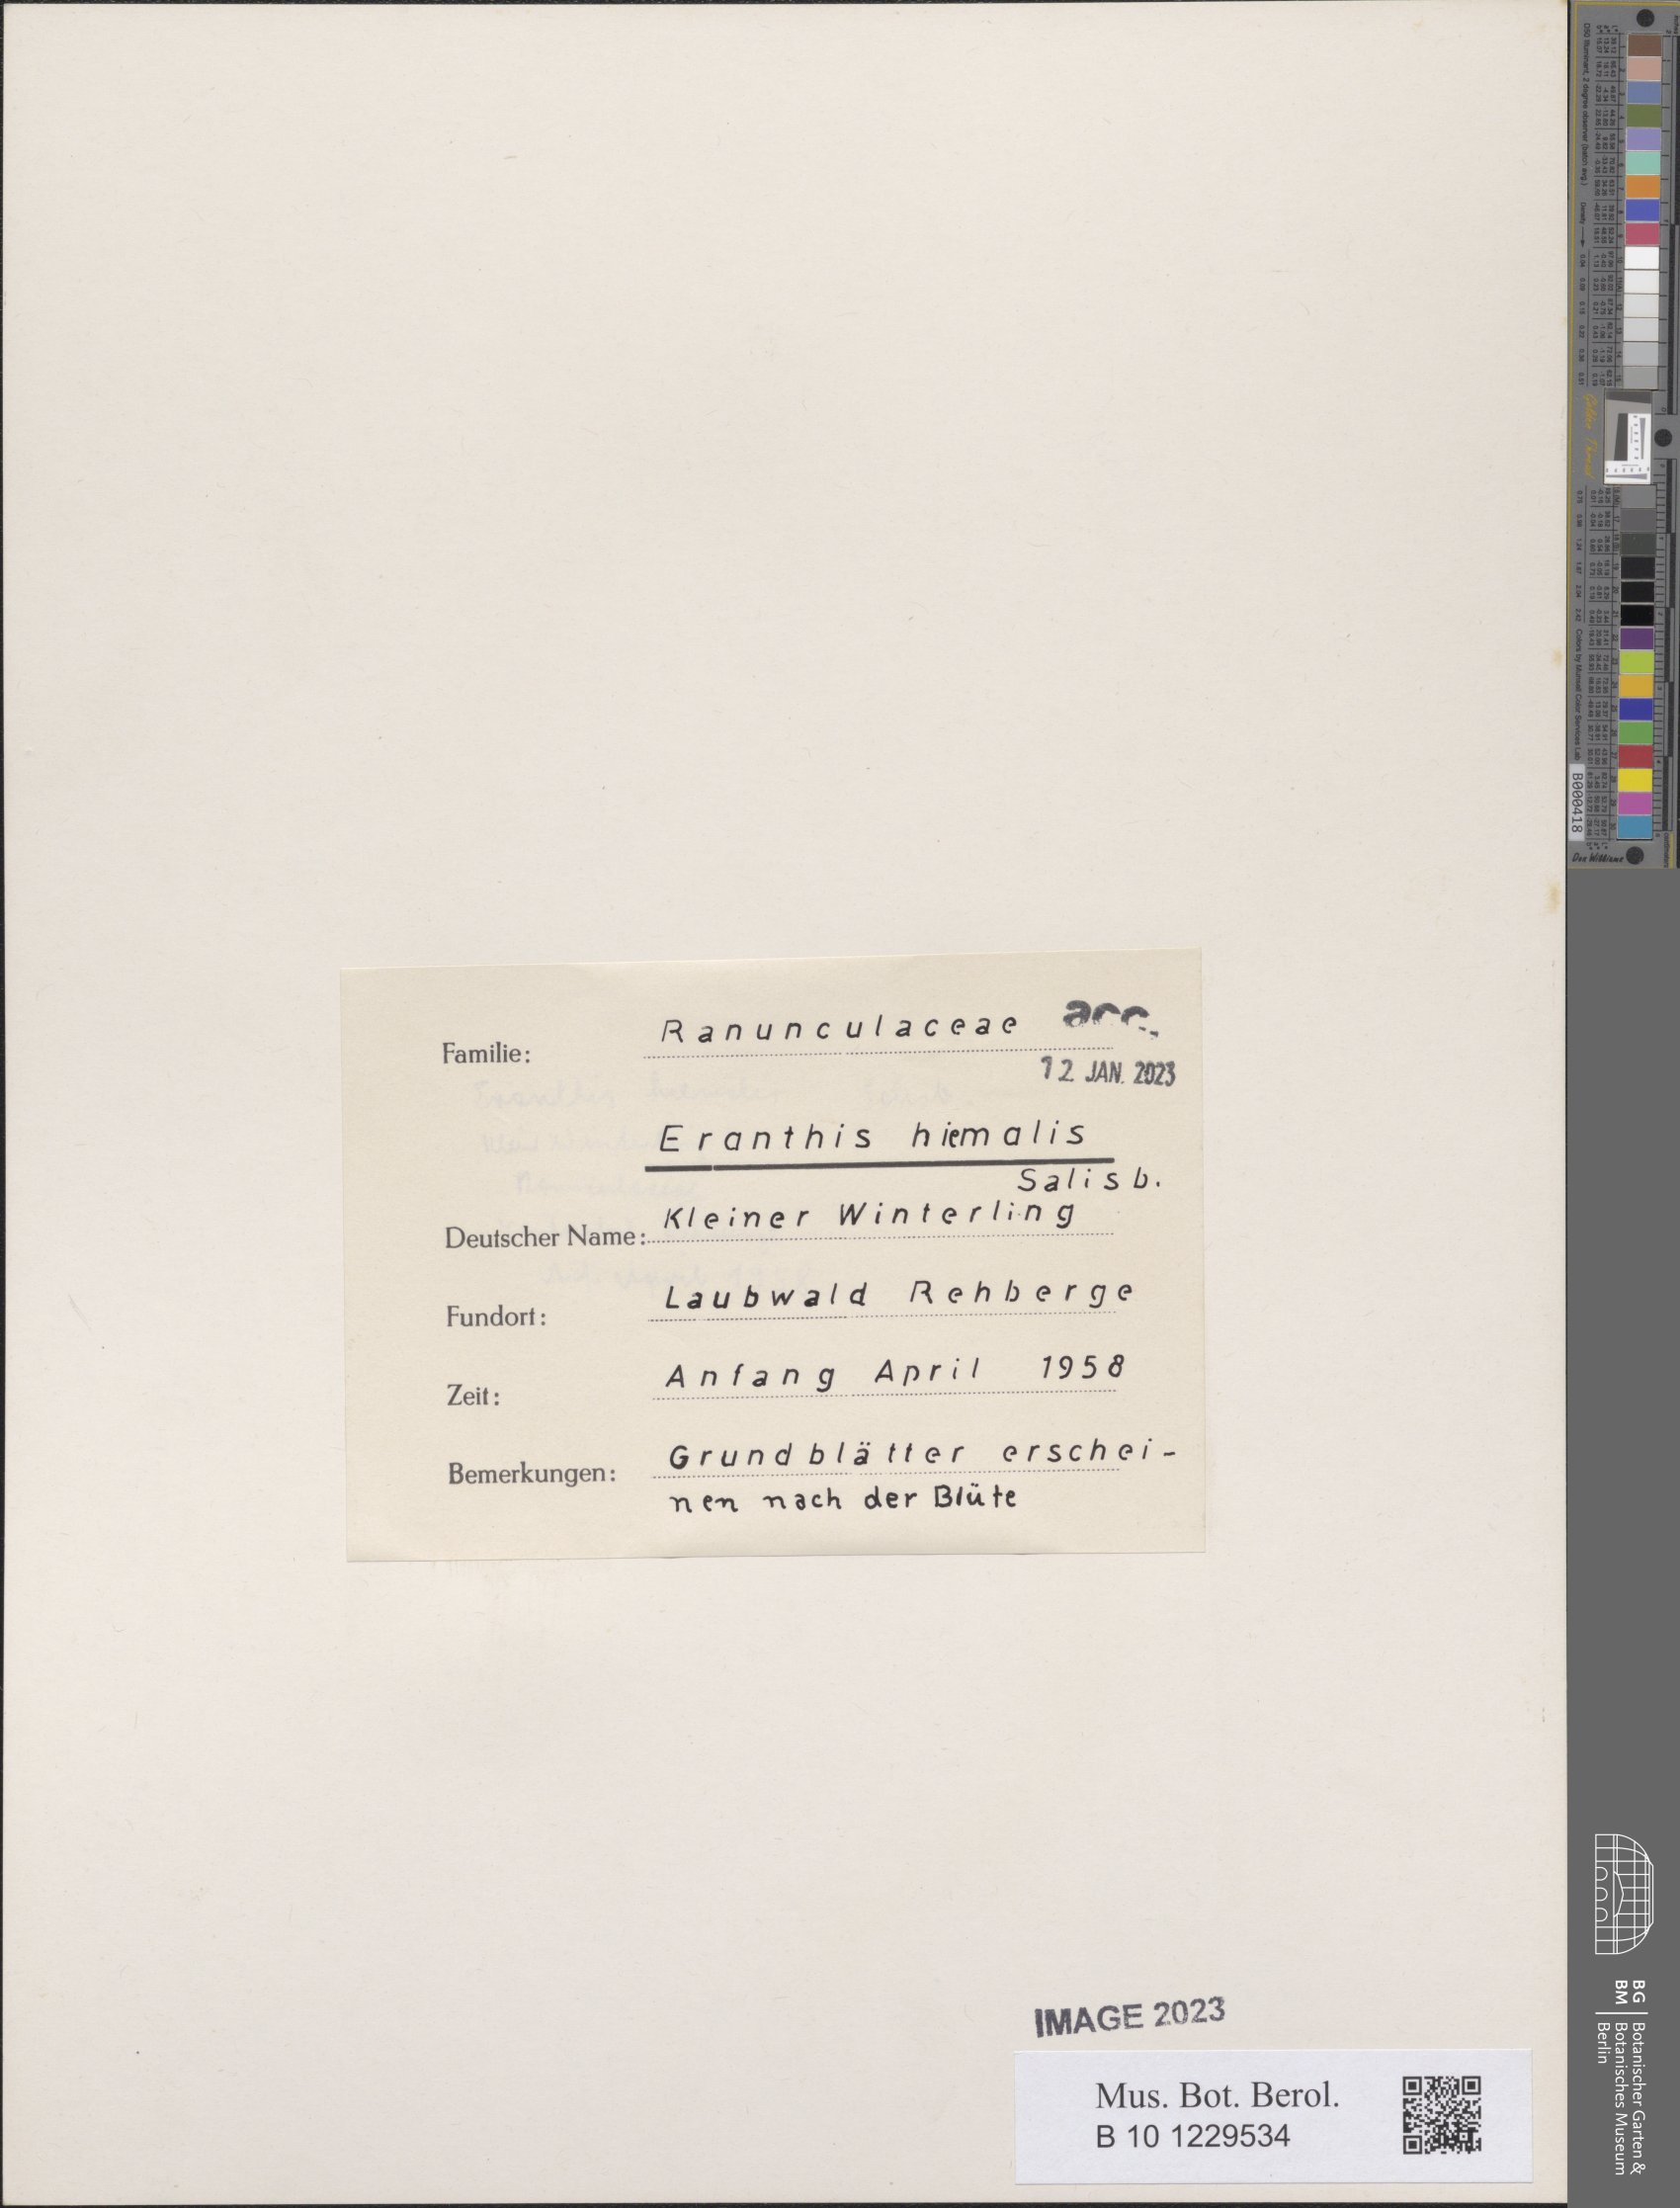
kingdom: Plantae
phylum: Tracheophyta
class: Magnoliopsida
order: Ranunculales
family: Ranunculaceae
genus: Eranthis
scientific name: Eranthis hyemalis
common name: Winter aconite
